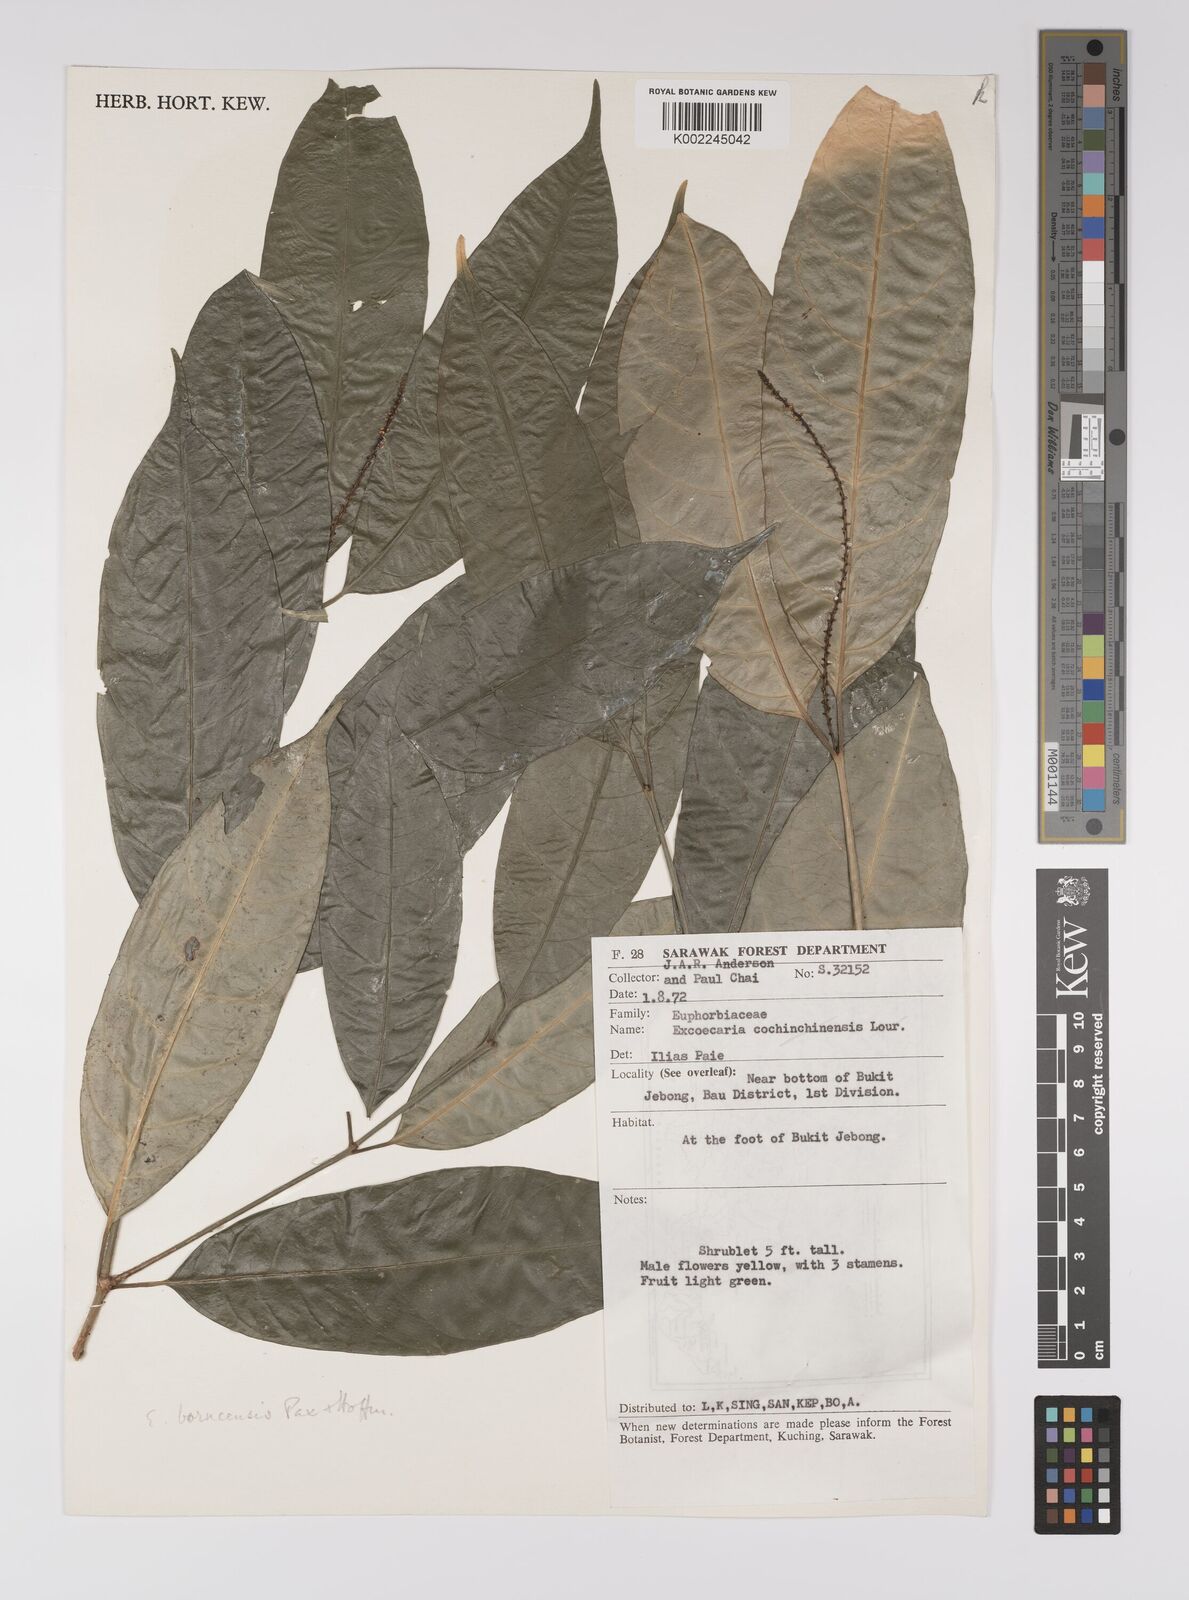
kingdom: Plantae
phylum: Tracheophyta
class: Magnoliopsida
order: Malpighiales
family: Euphorbiaceae
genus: Excoecaria
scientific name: Excoecaria borneensis
